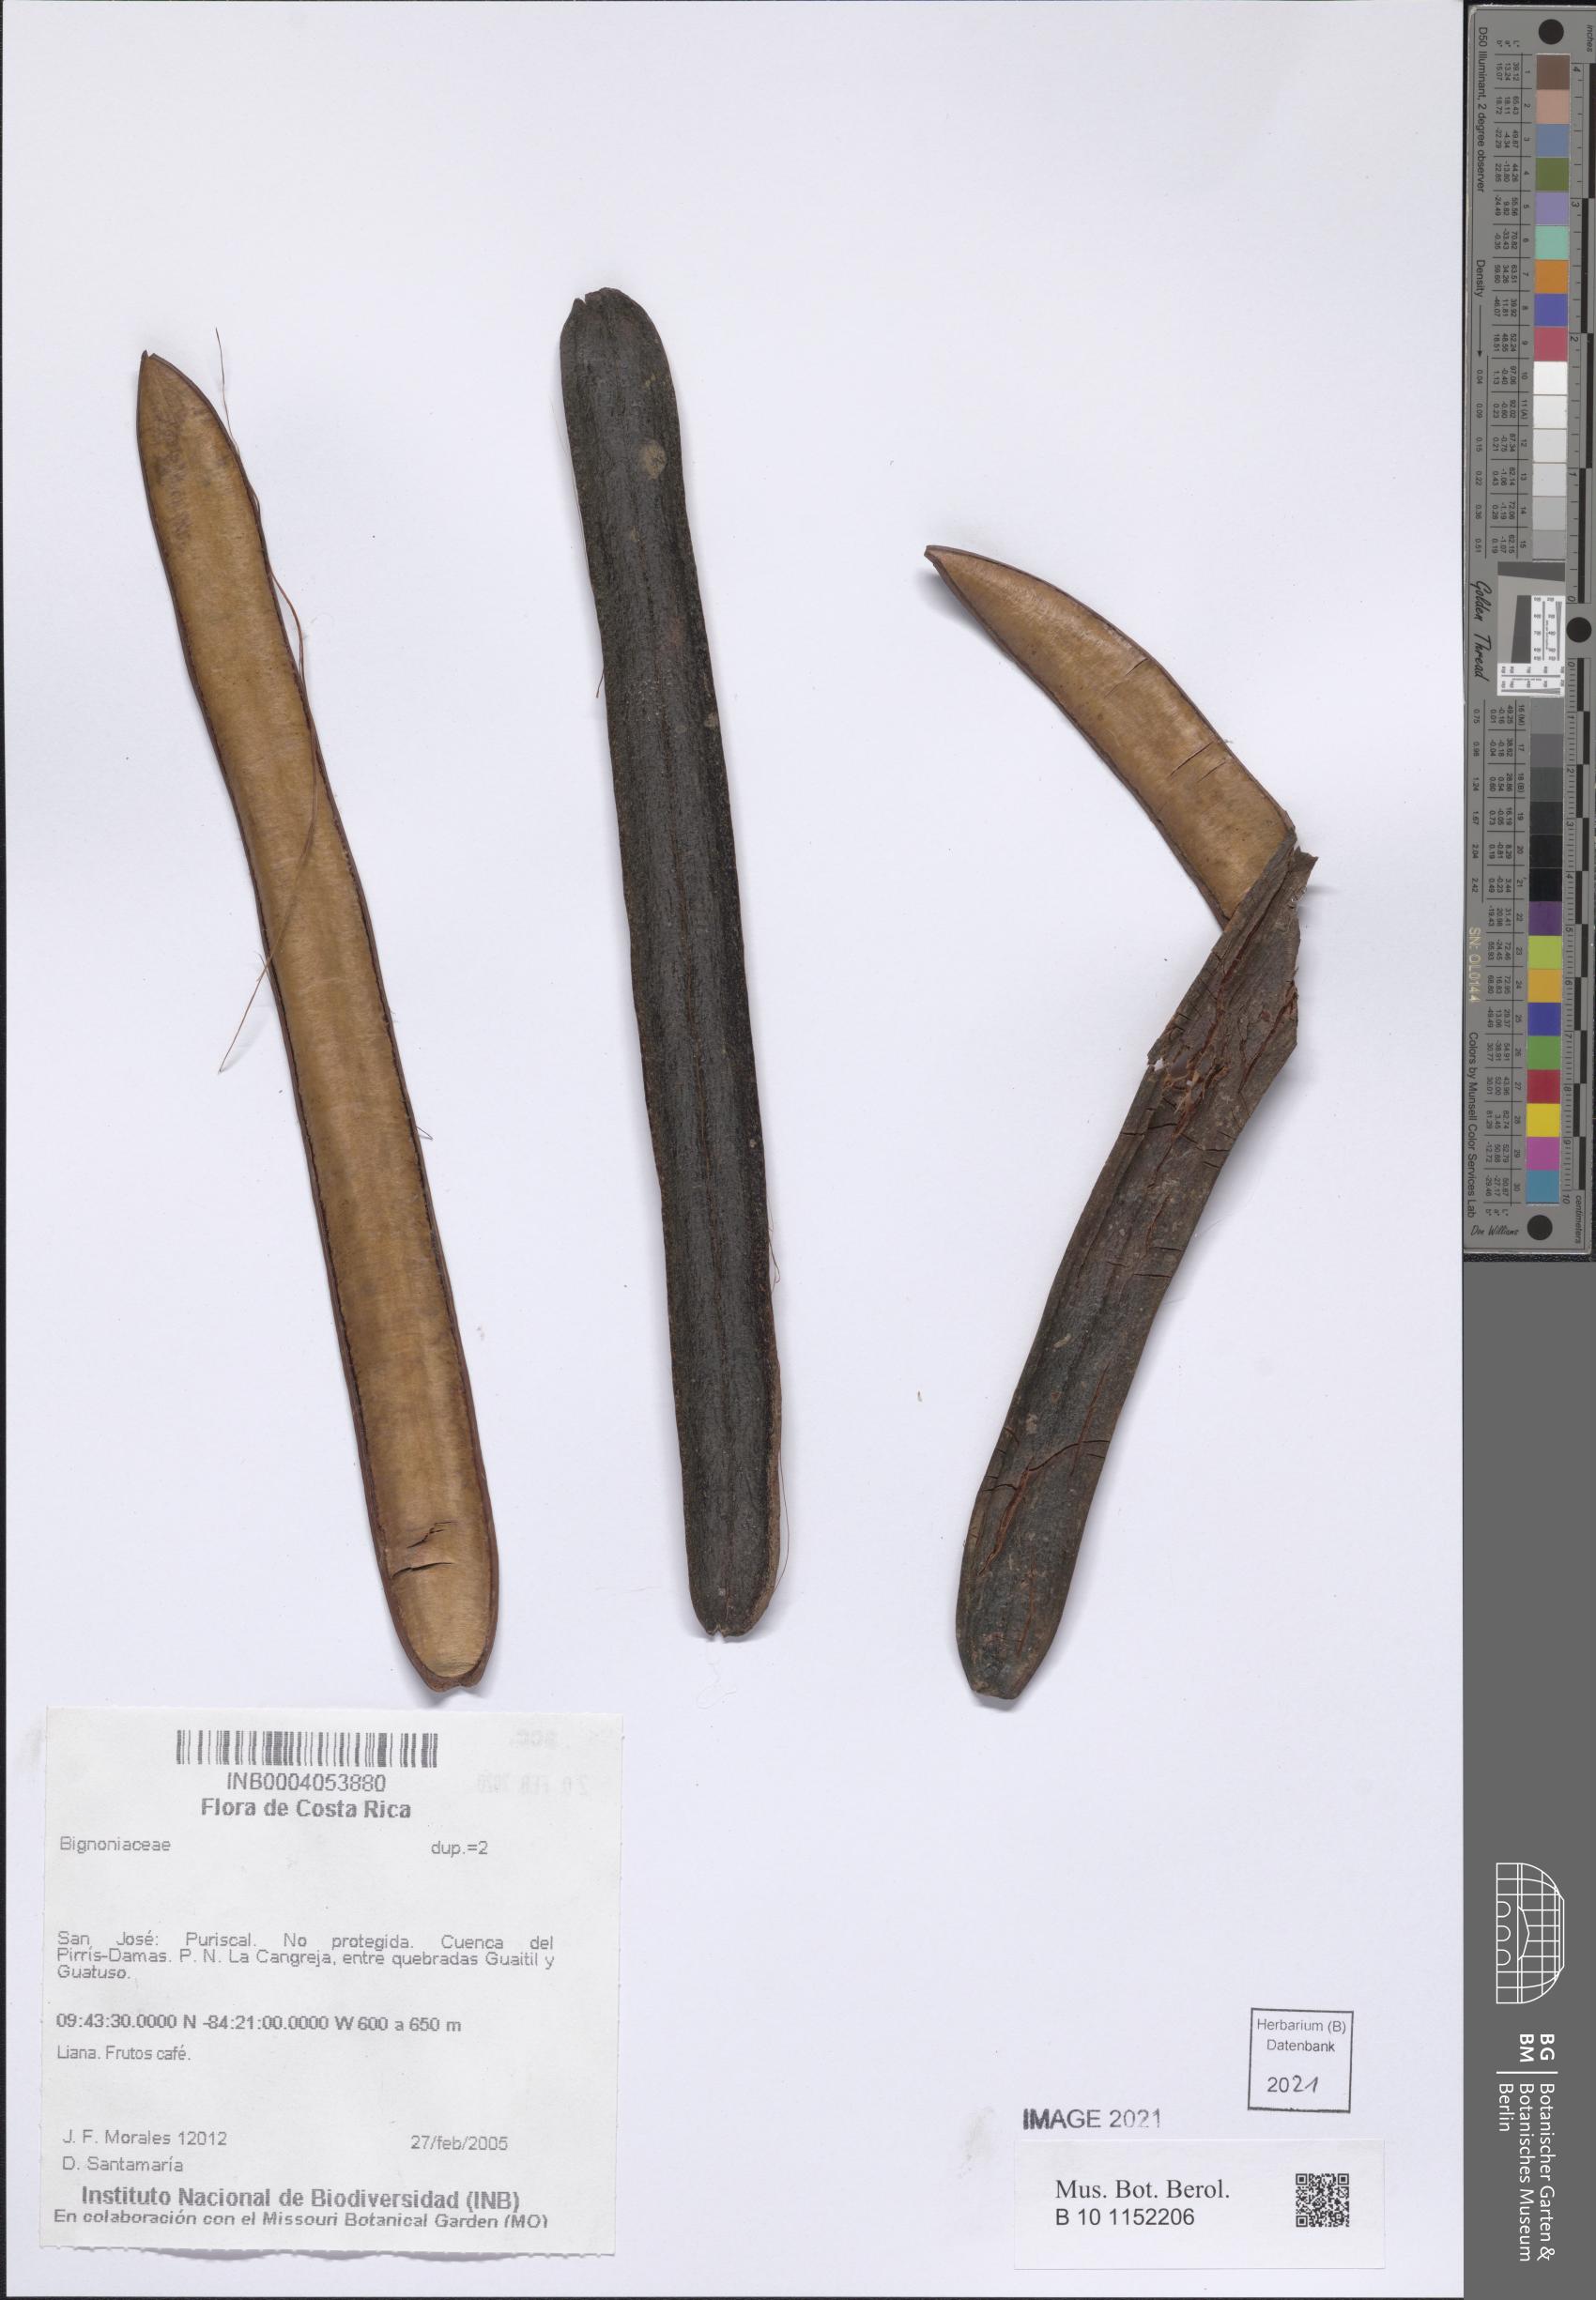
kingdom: Plantae
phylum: Tracheophyta
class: Magnoliopsida
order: Lamiales
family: Bignoniaceae
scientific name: Bignoniaceae
